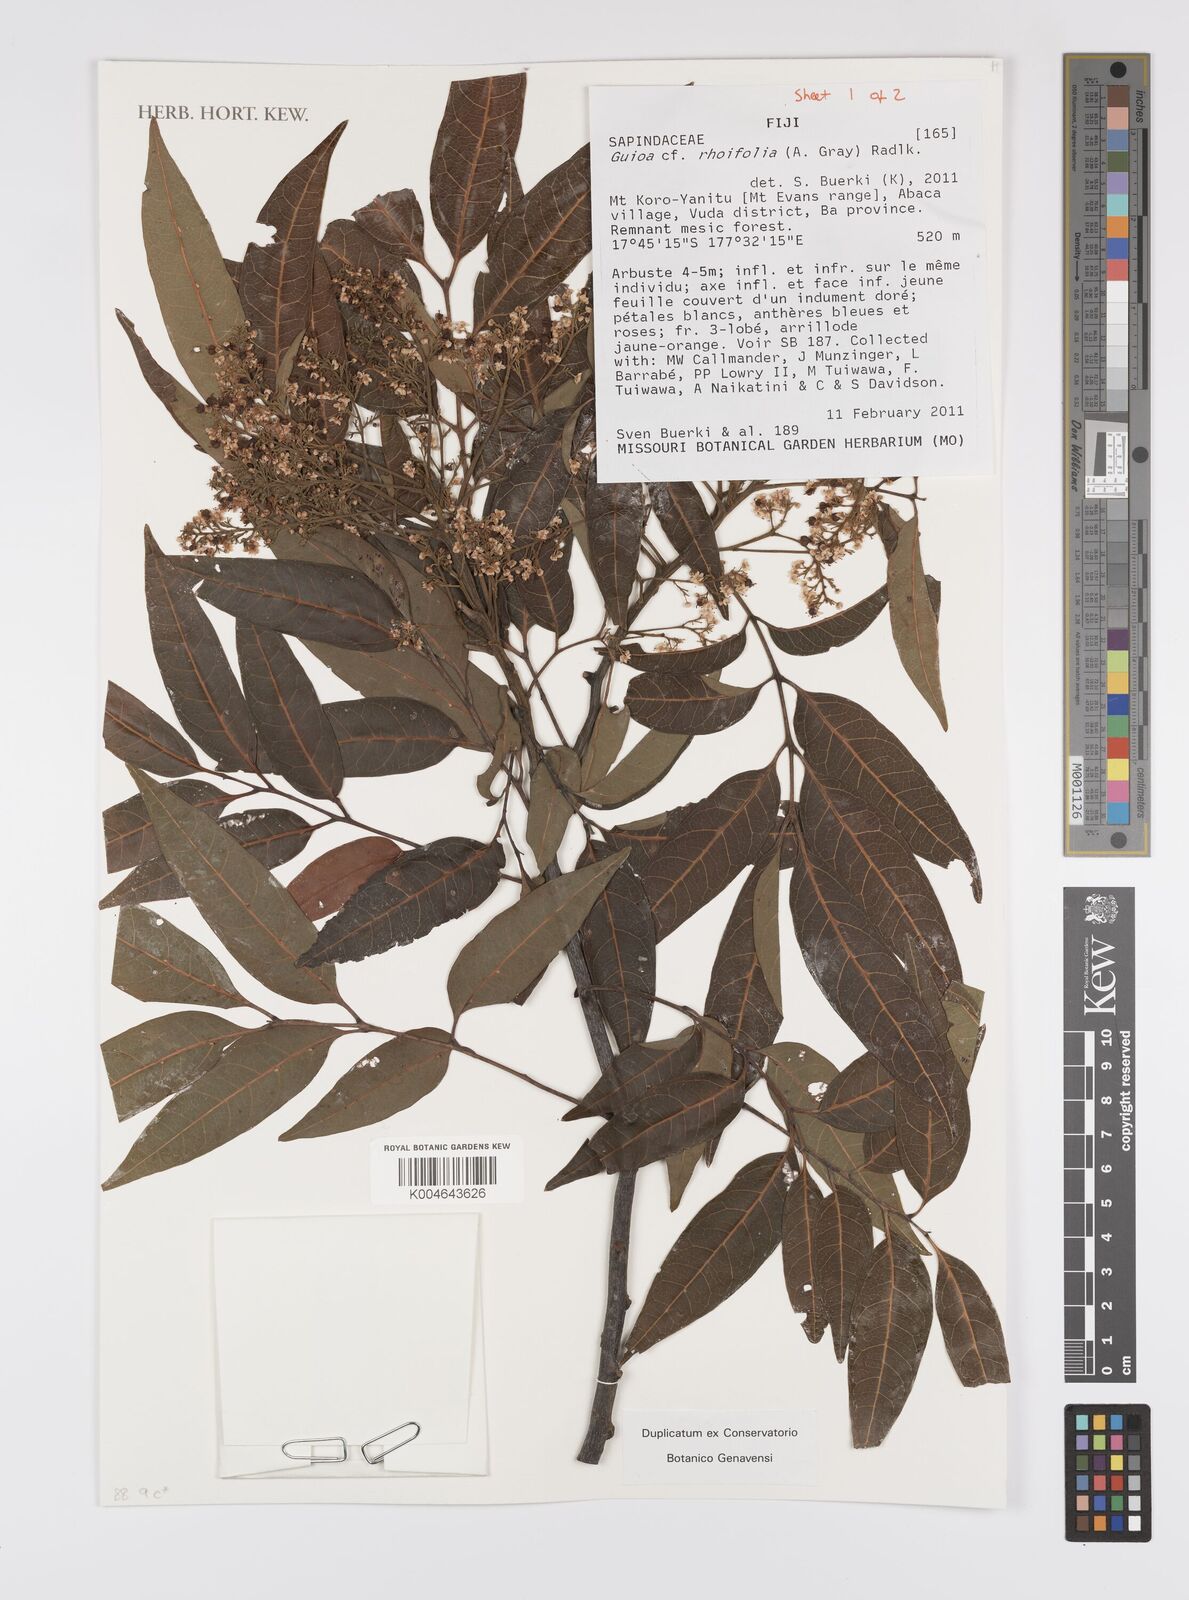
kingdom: Plantae
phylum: Tracheophyta
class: Magnoliopsida
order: Sapindales
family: Sapindaceae
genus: Guioa
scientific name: Guioa rhoifolia
